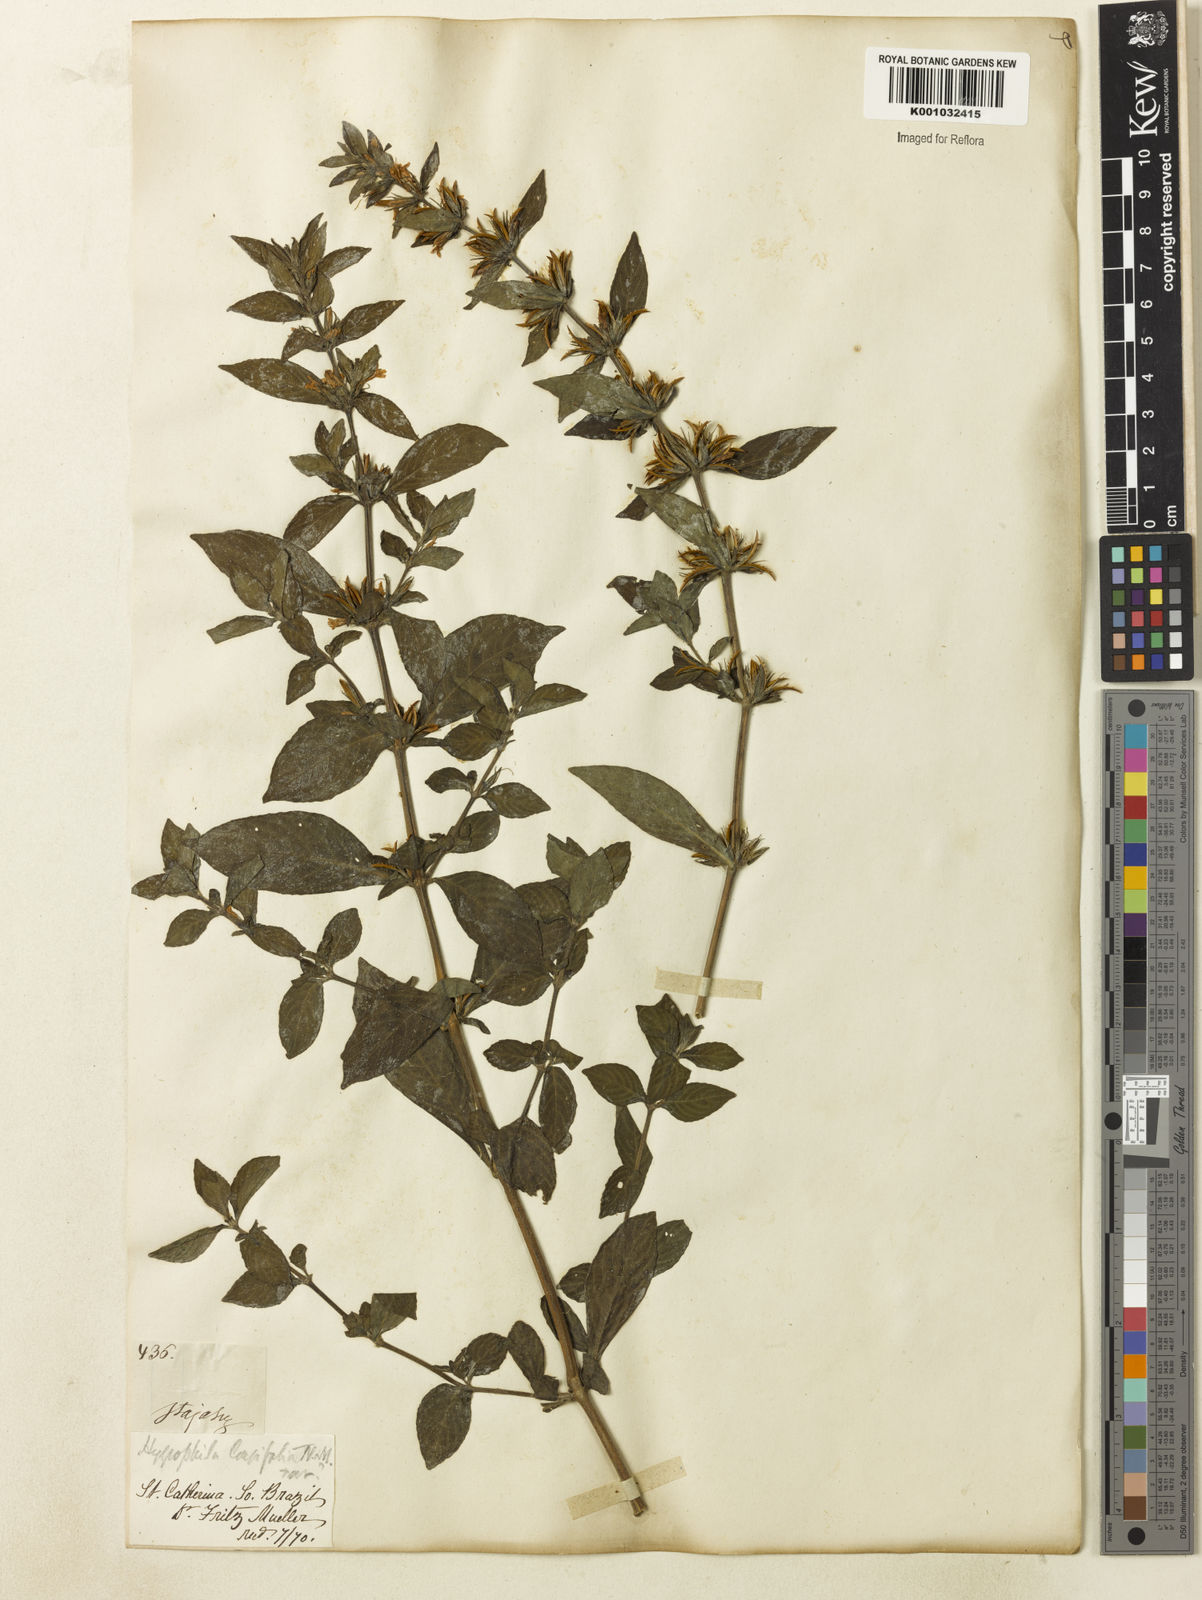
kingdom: Plantae
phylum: Tracheophyta
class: Magnoliopsida
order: Lamiales
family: Acanthaceae
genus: Hygrophila
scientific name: Hygrophila costata
